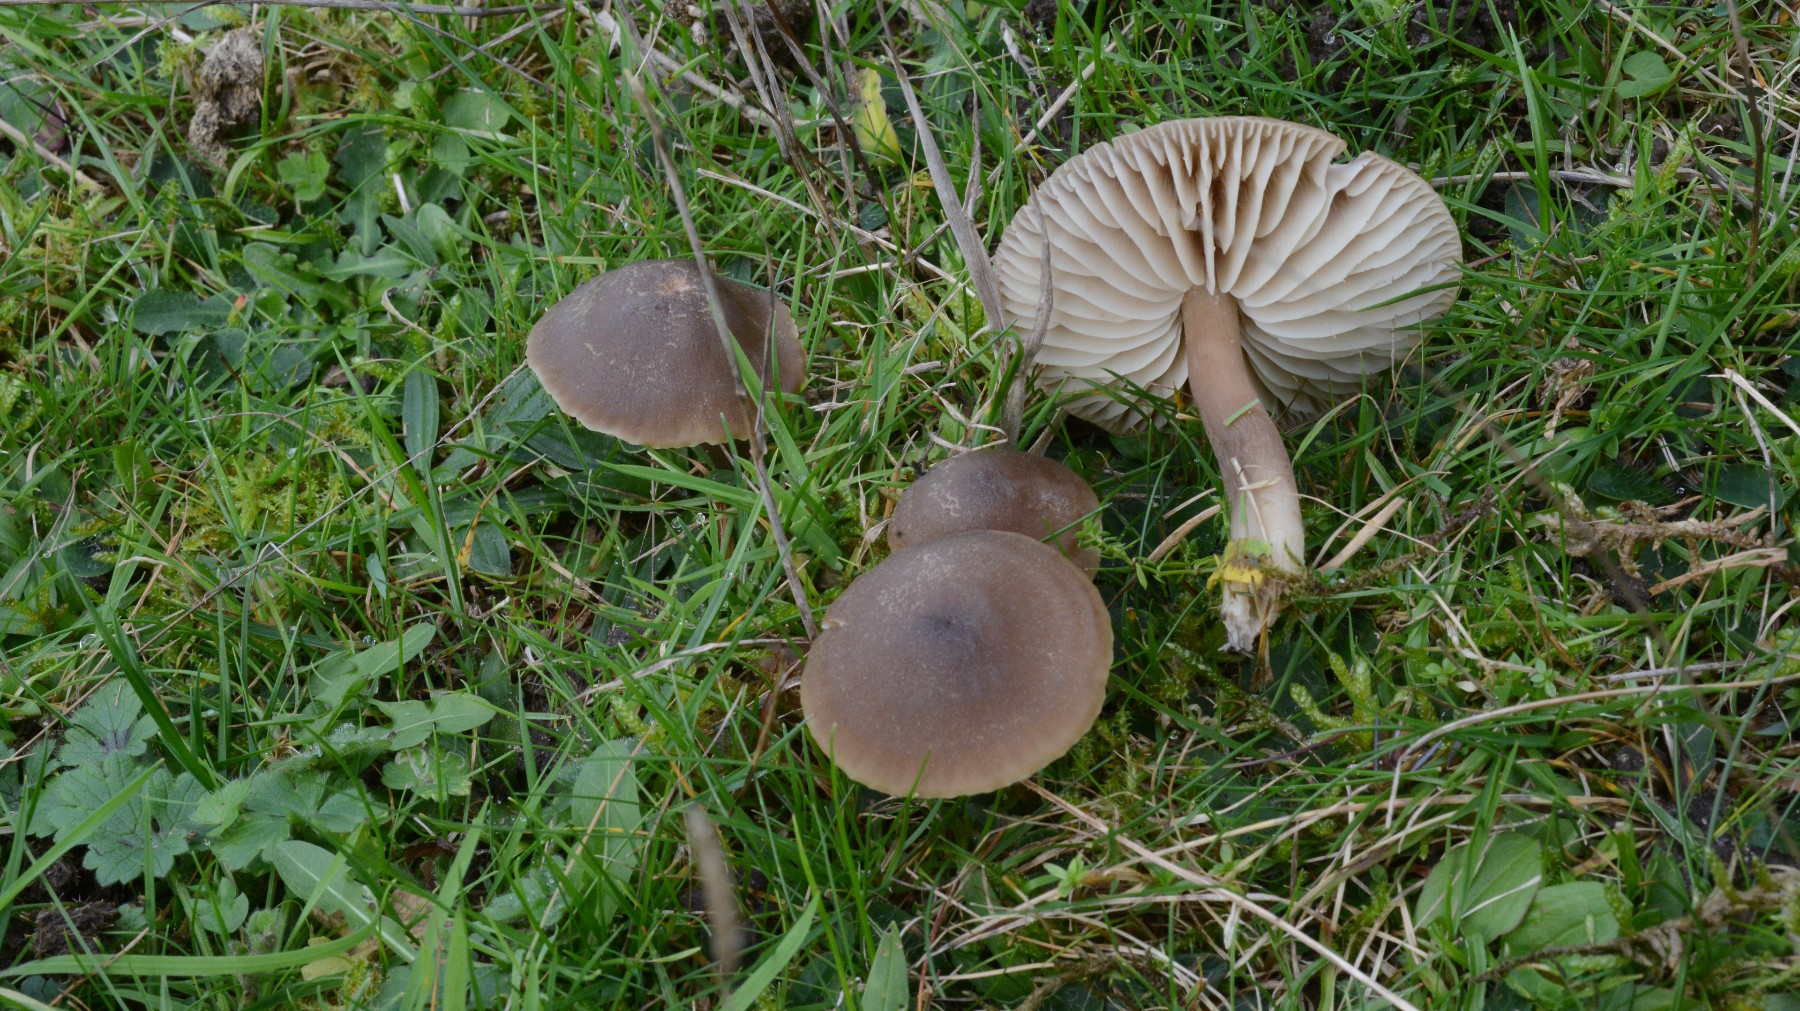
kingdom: Fungi
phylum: Basidiomycota
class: Agaricomycetes
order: Agaricales
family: Hygrophoraceae
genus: Neohygrocybe
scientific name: Neohygrocybe nitrata
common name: stinkende vokshat
